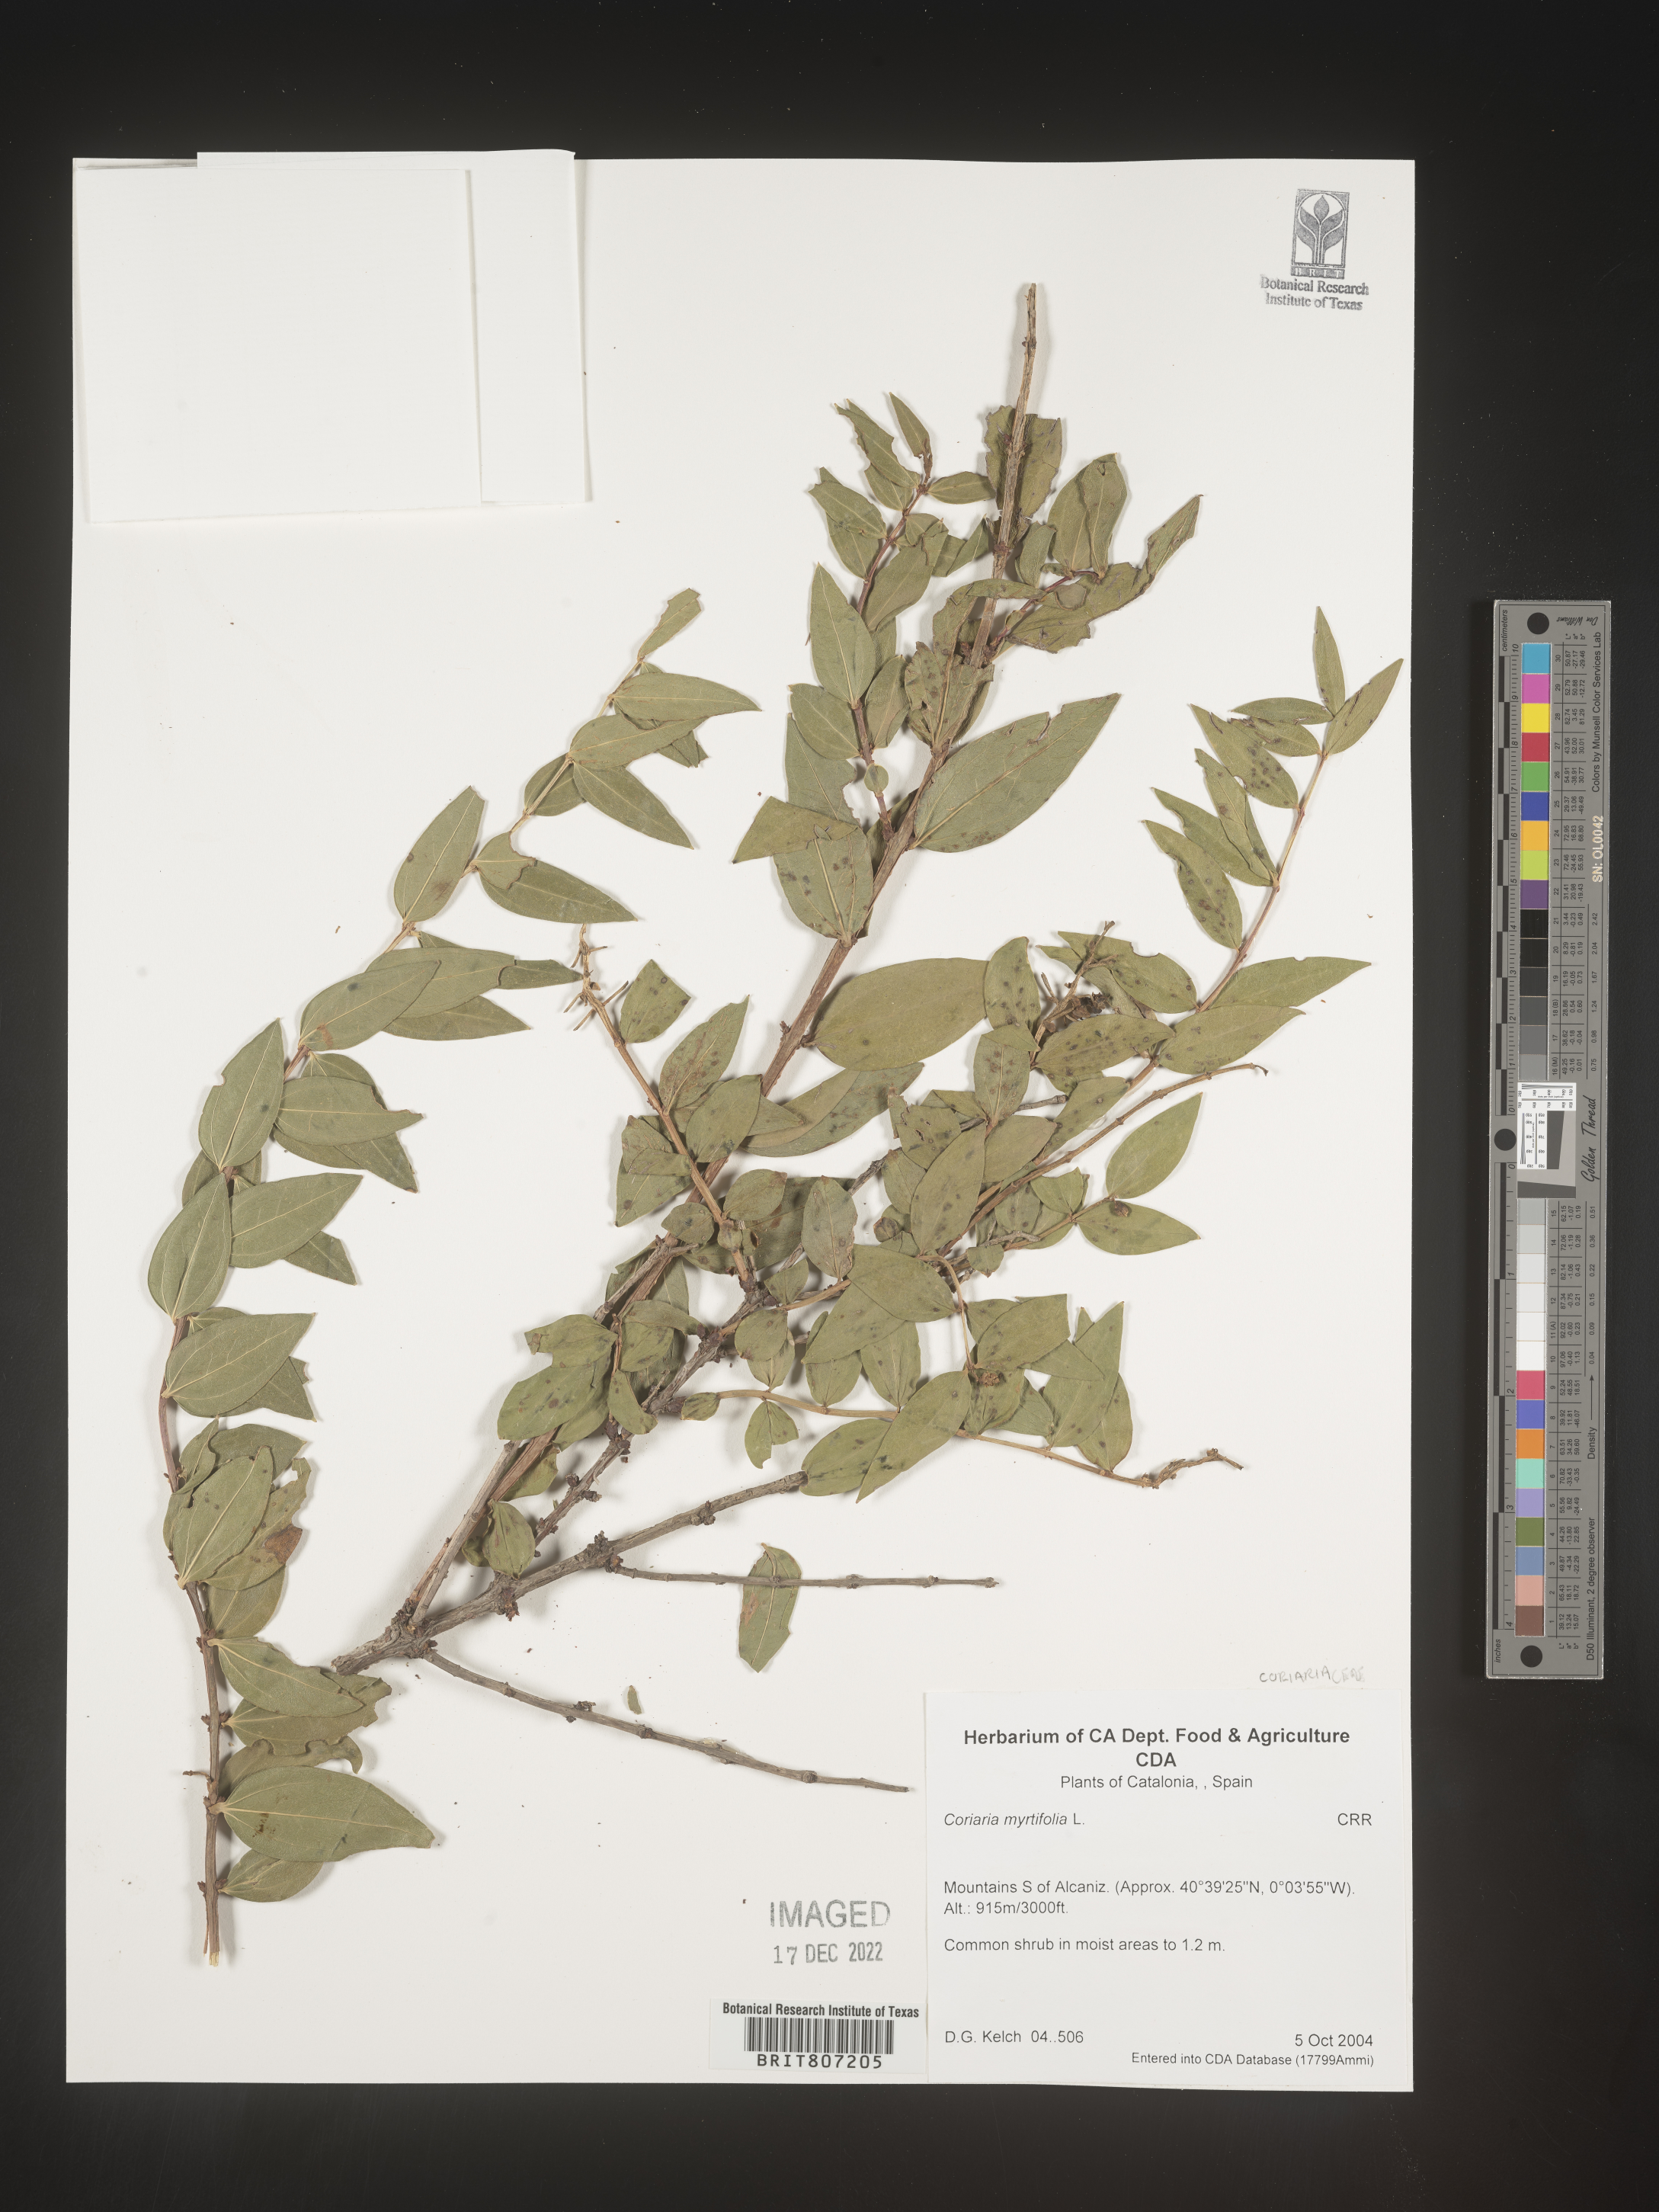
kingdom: Plantae
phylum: Tracheophyta
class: Magnoliopsida
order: Cucurbitales
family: Coriariaceae
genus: Coriaria
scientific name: Coriaria
